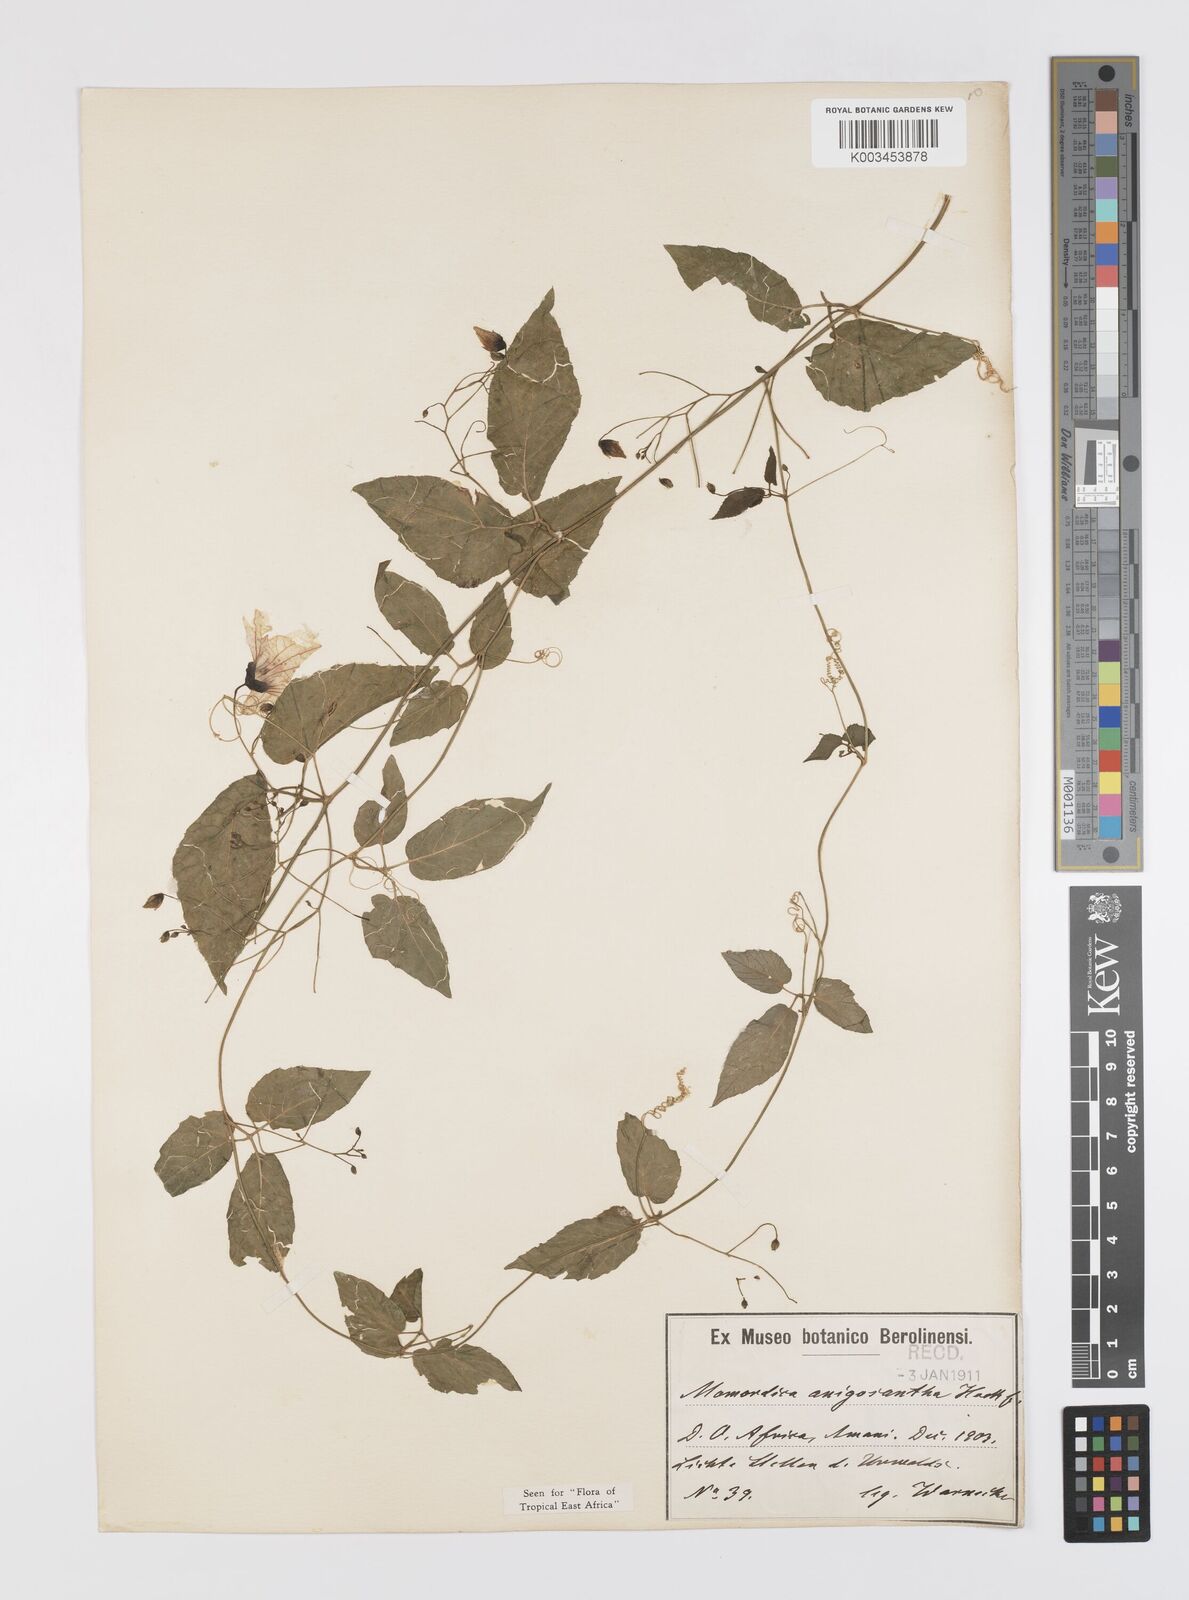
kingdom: Plantae
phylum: Tracheophyta
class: Magnoliopsida
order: Cucurbitales
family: Cucurbitaceae
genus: Momordica
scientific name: Momordica anigosantha
